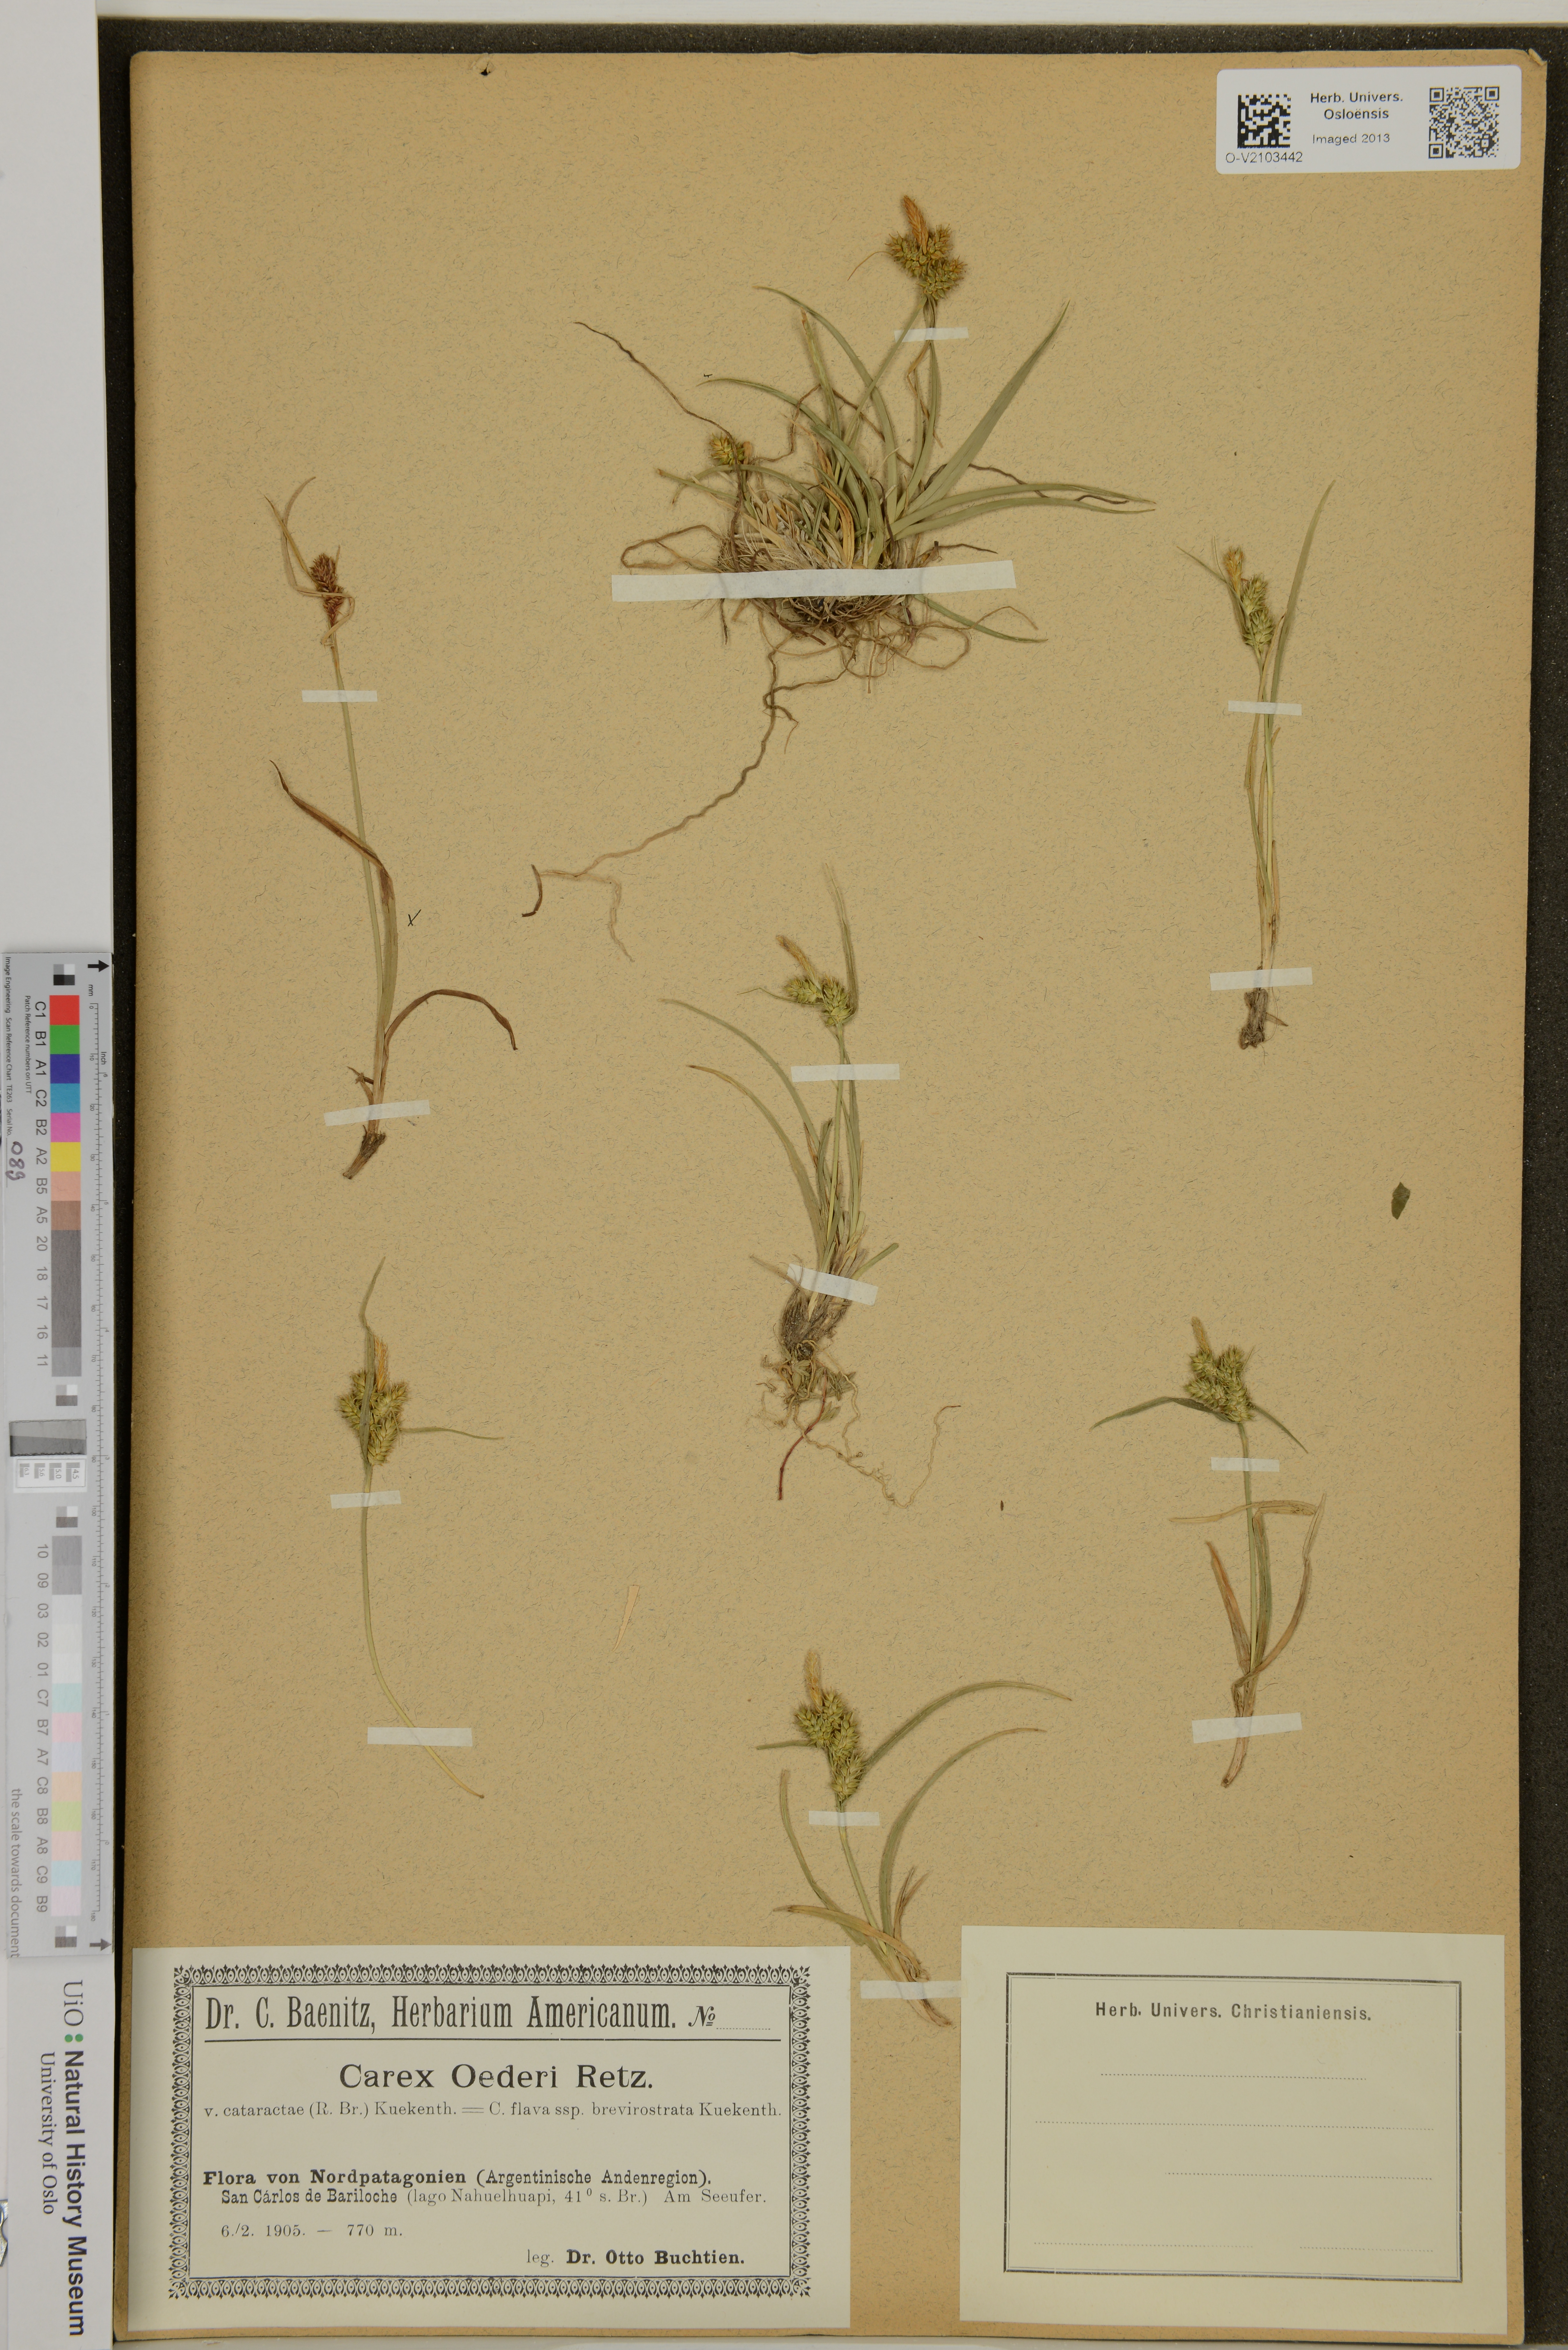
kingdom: Plantae
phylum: Tracheophyta
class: Liliopsida
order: Poales
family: Cyperaceae
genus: Carex
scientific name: Carex oederi
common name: Common & small-fruited yellow-sedge
